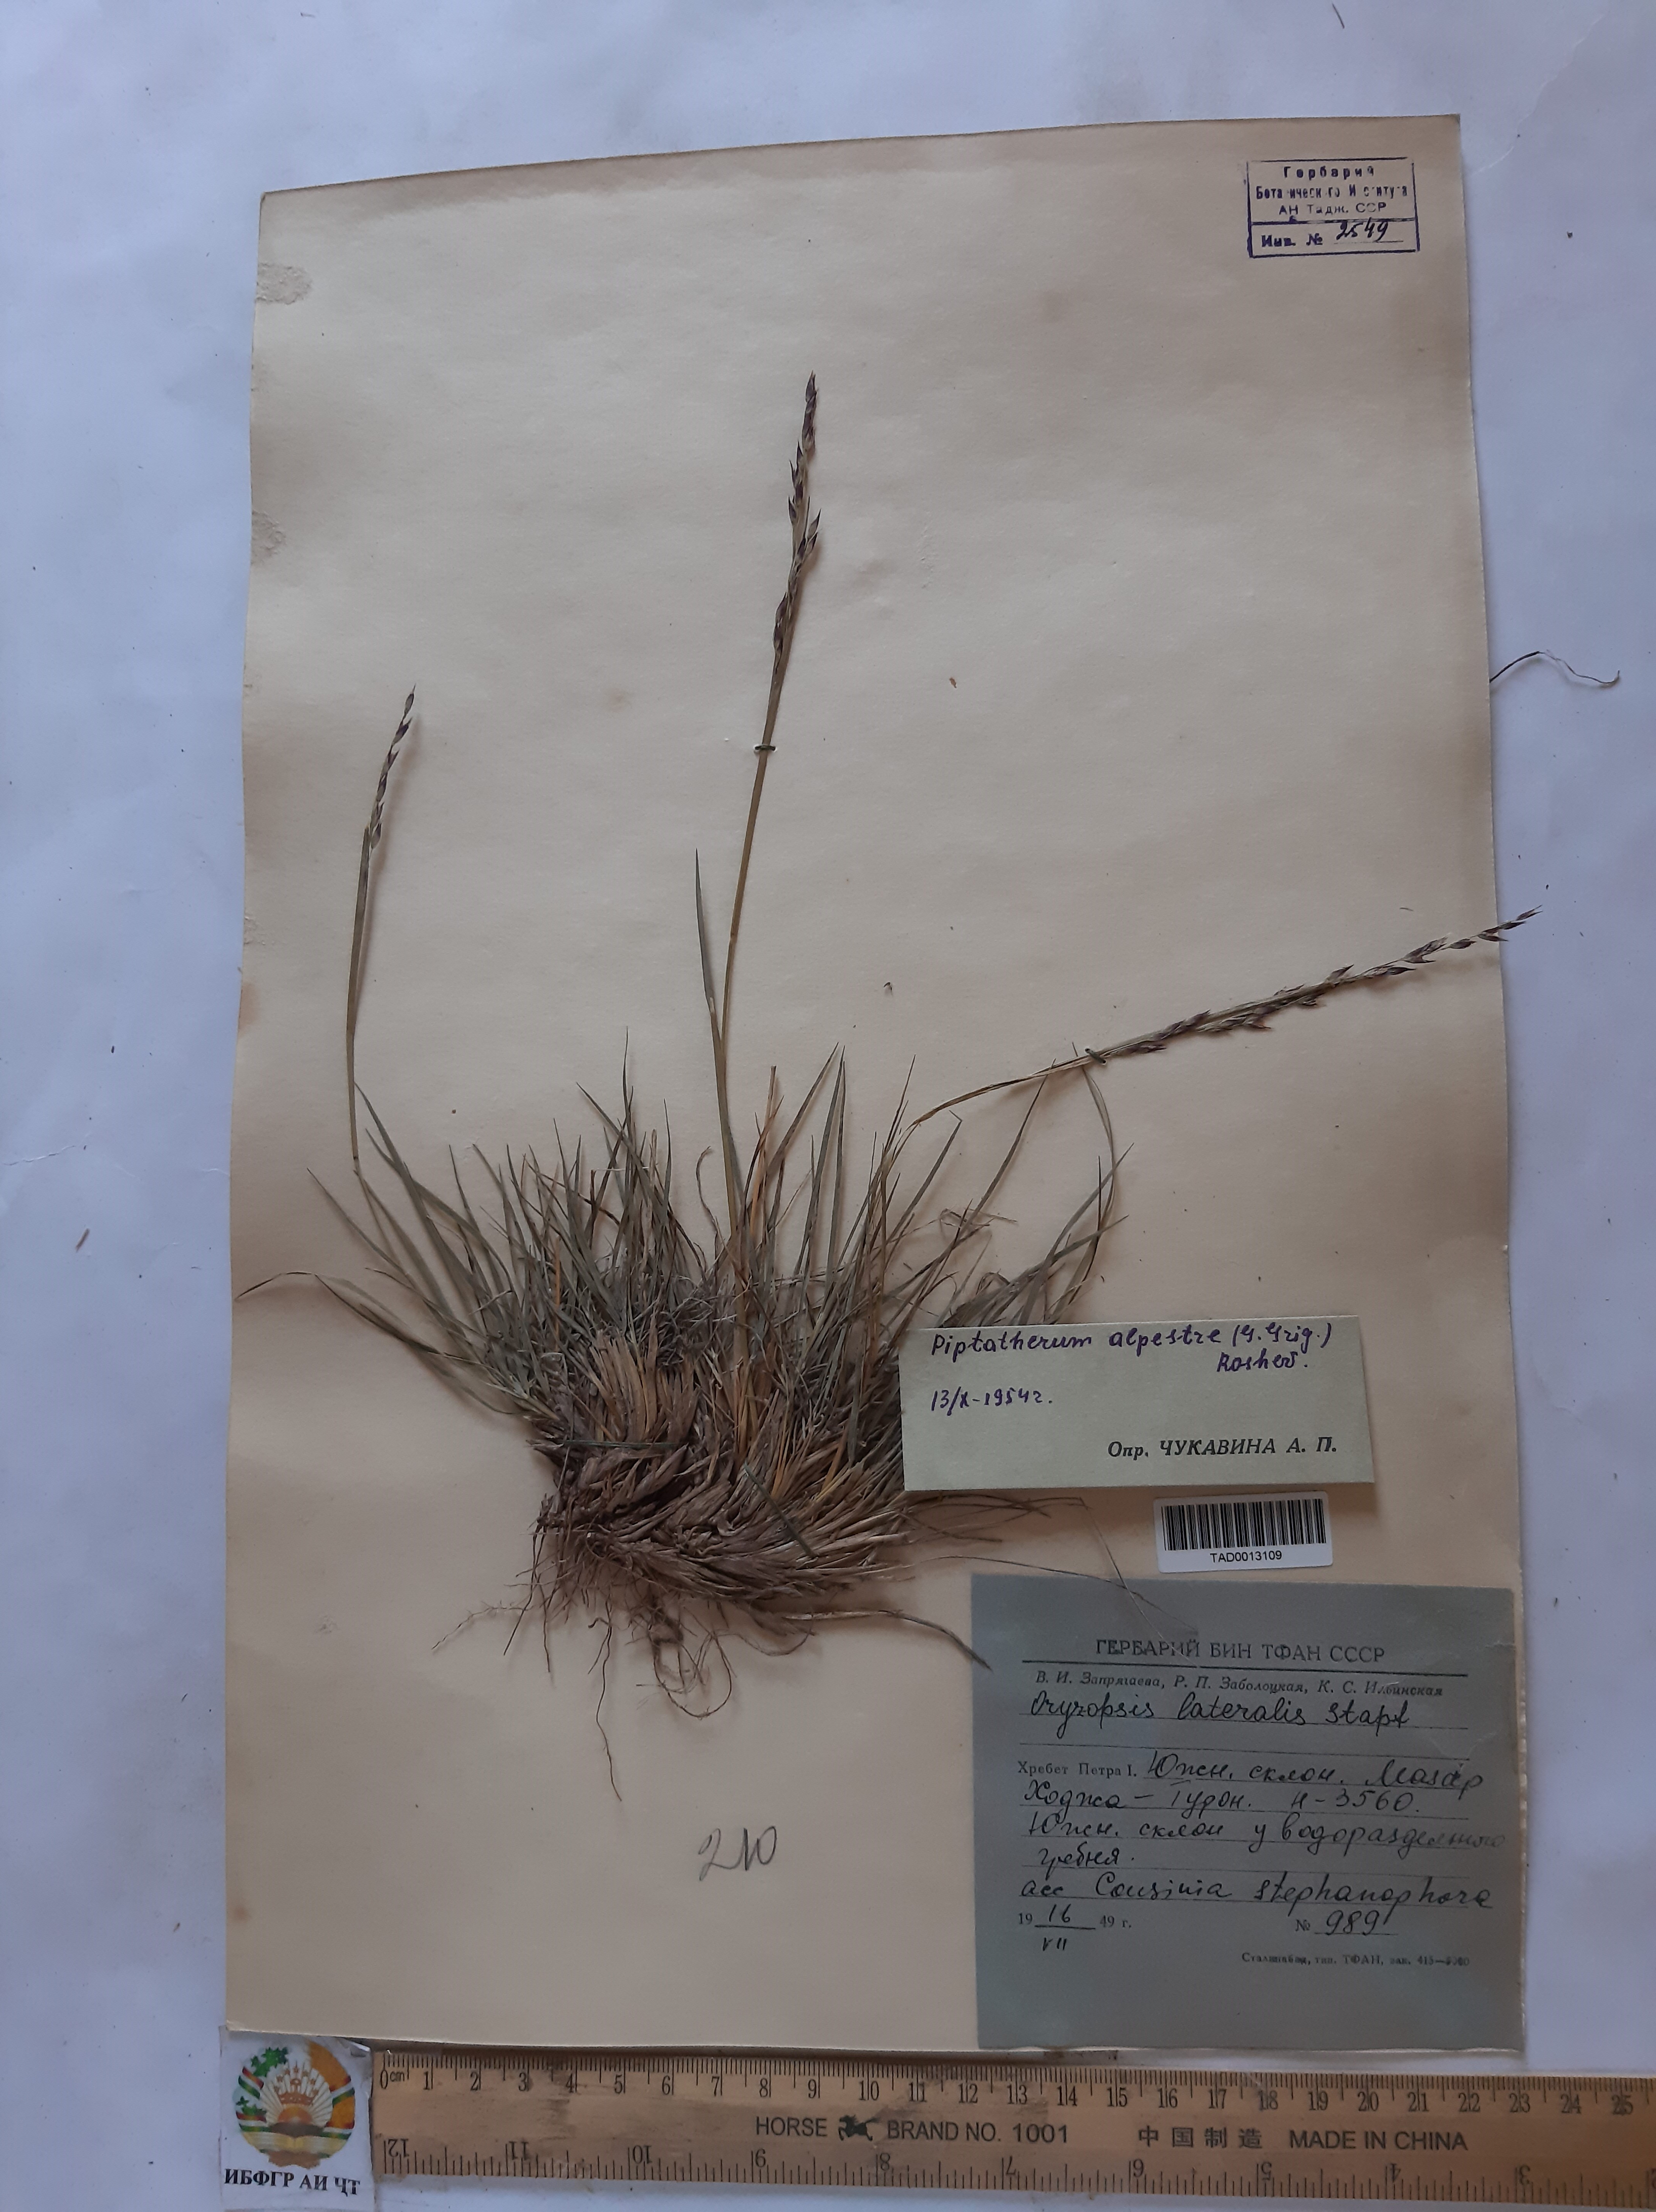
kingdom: Plantae
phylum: Tracheophyta
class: Liliopsida
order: Poales
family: Poaceae
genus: Piptatherum
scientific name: Piptatherum alpestre
